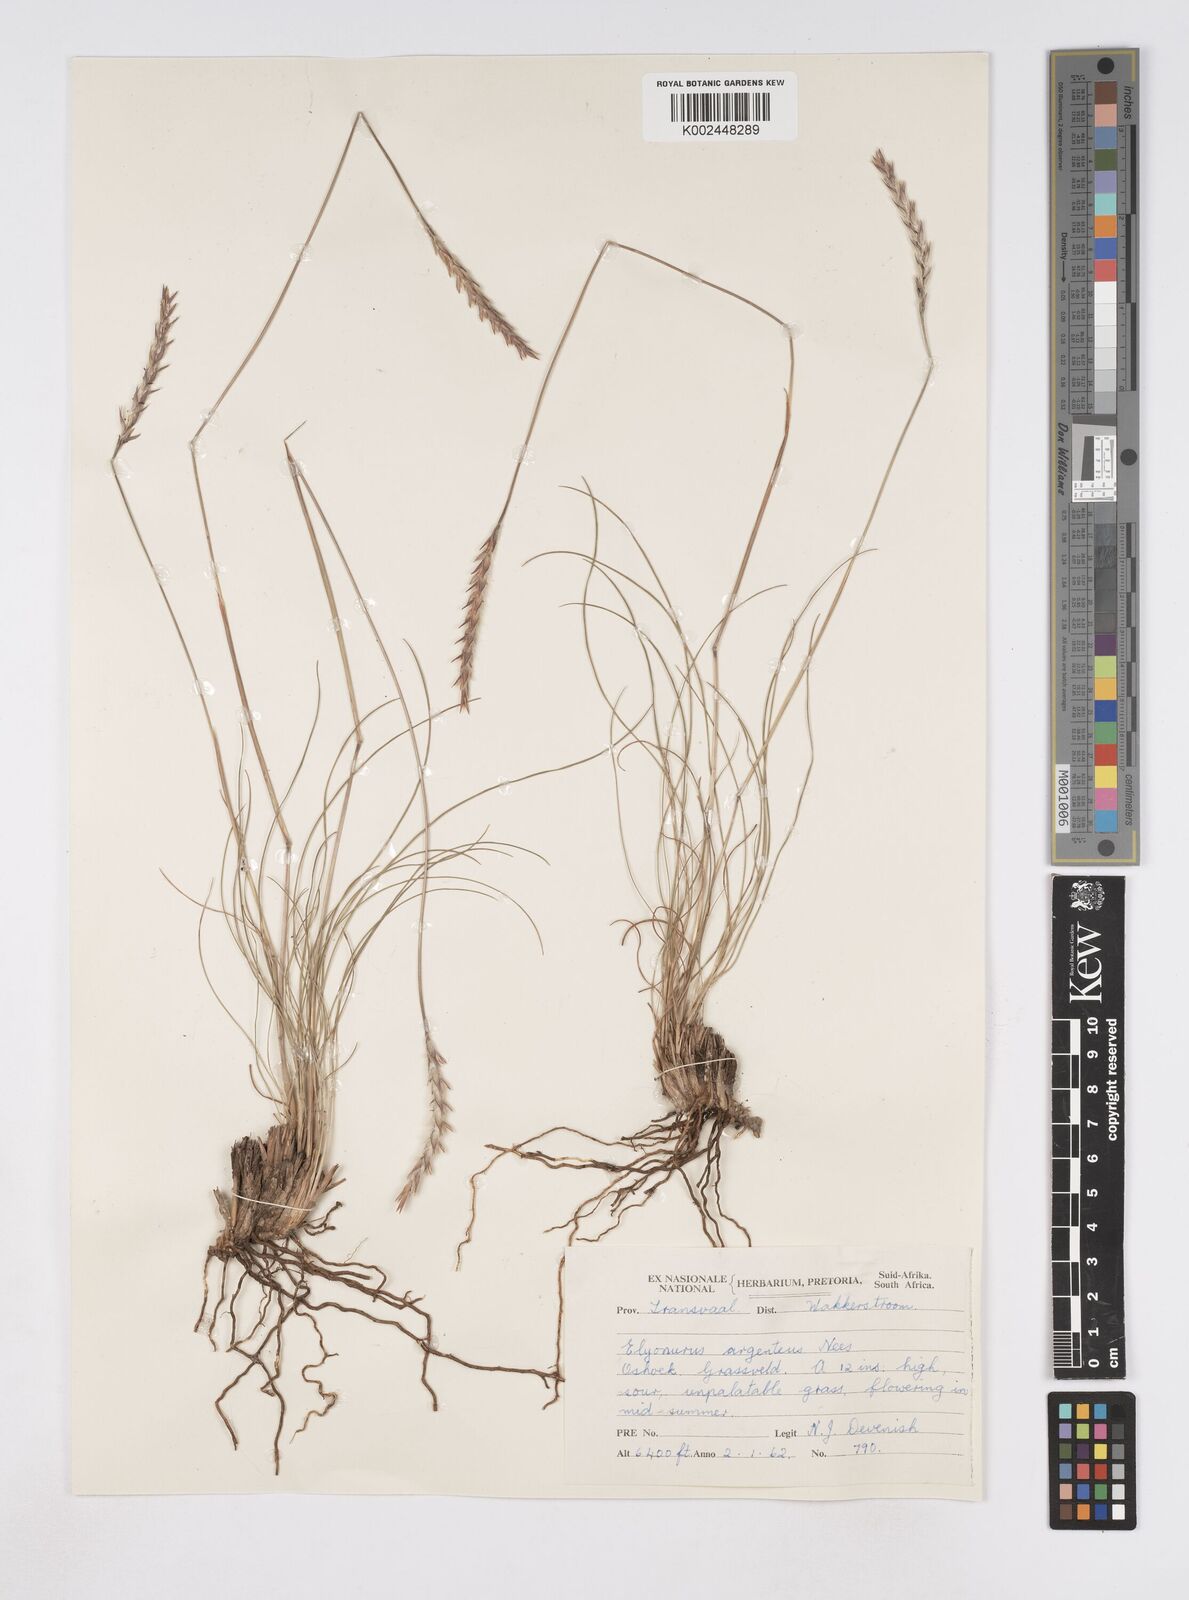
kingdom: Plantae
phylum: Tracheophyta
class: Liliopsida
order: Poales
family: Poaceae
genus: Elionurus
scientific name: Elionurus muticus
